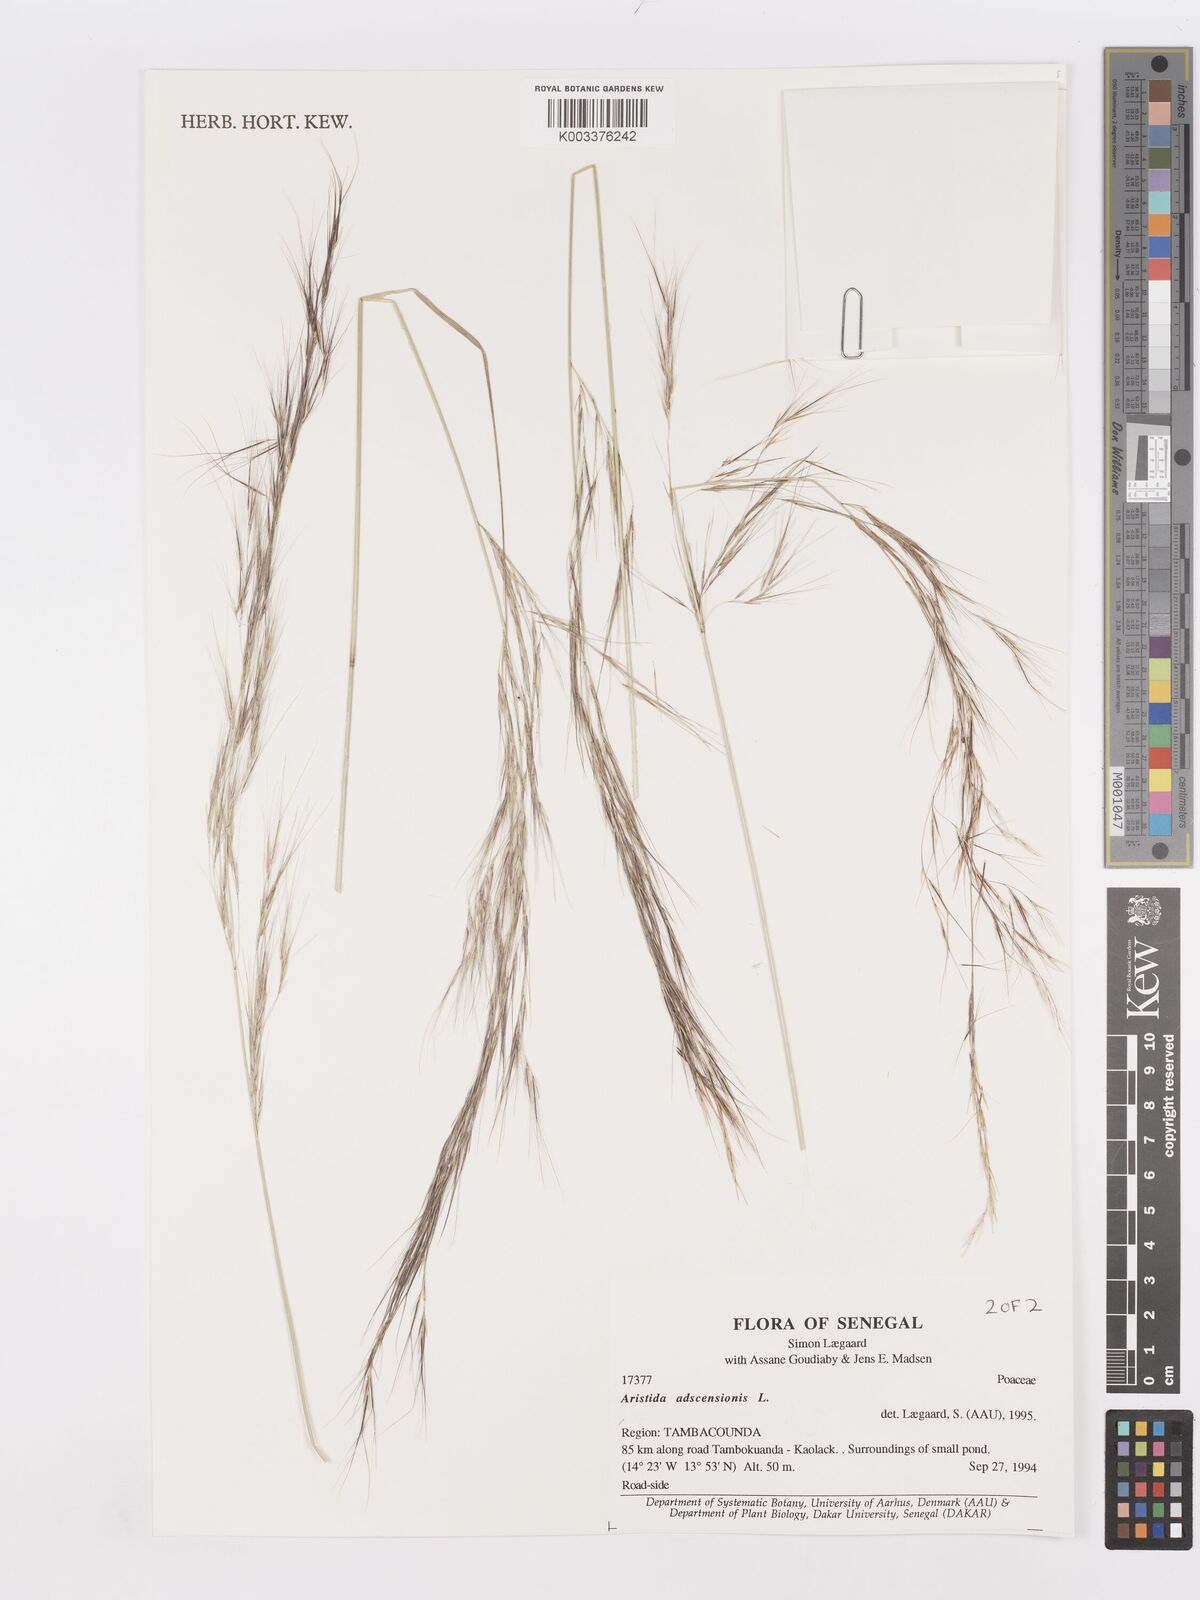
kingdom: Plantae
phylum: Tracheophyta
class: Liliopsida
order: Poales
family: Poaceae
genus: Aristida
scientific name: Aristida adscensionis
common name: Sixweeks threeawn
